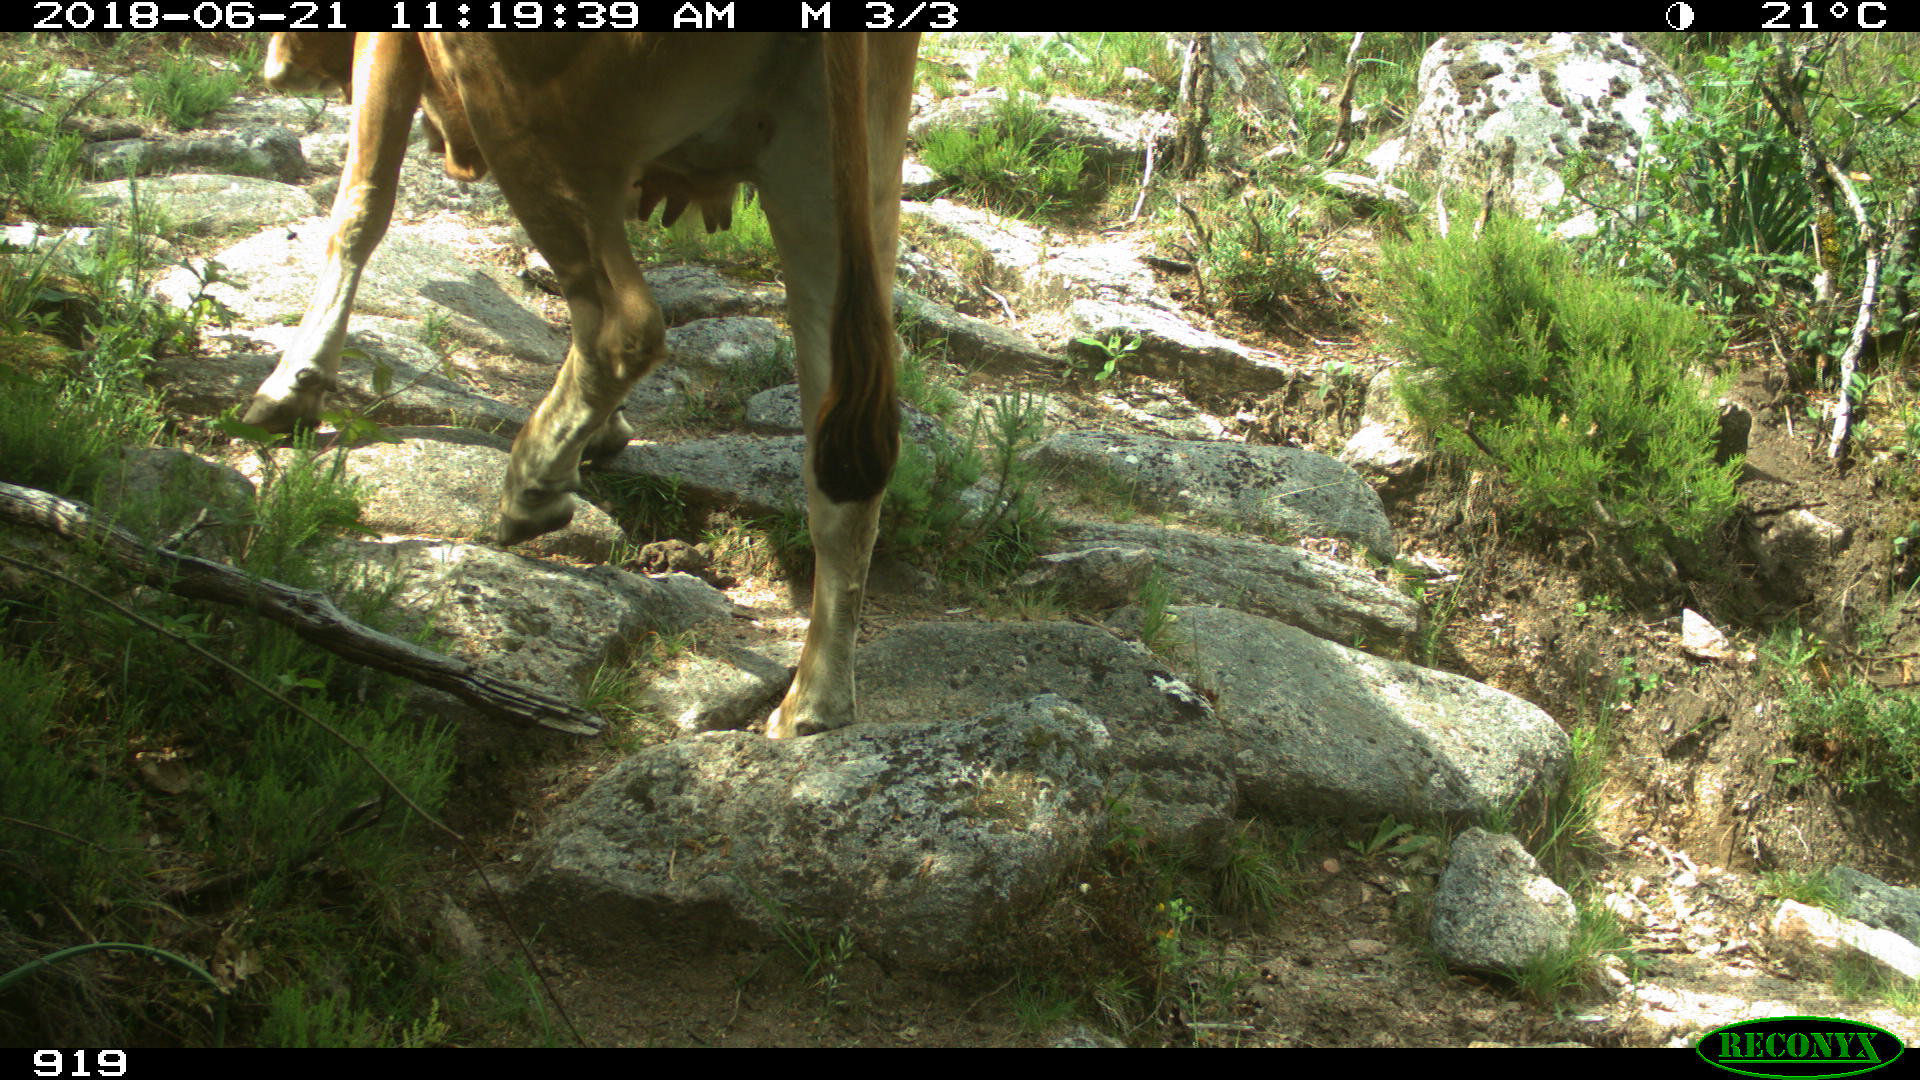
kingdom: Animalia
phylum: Chordata
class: Mammalia
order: Artiodactyla
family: Bovidae
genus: Bos
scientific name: Bos taurus
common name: Domesticated cattle
